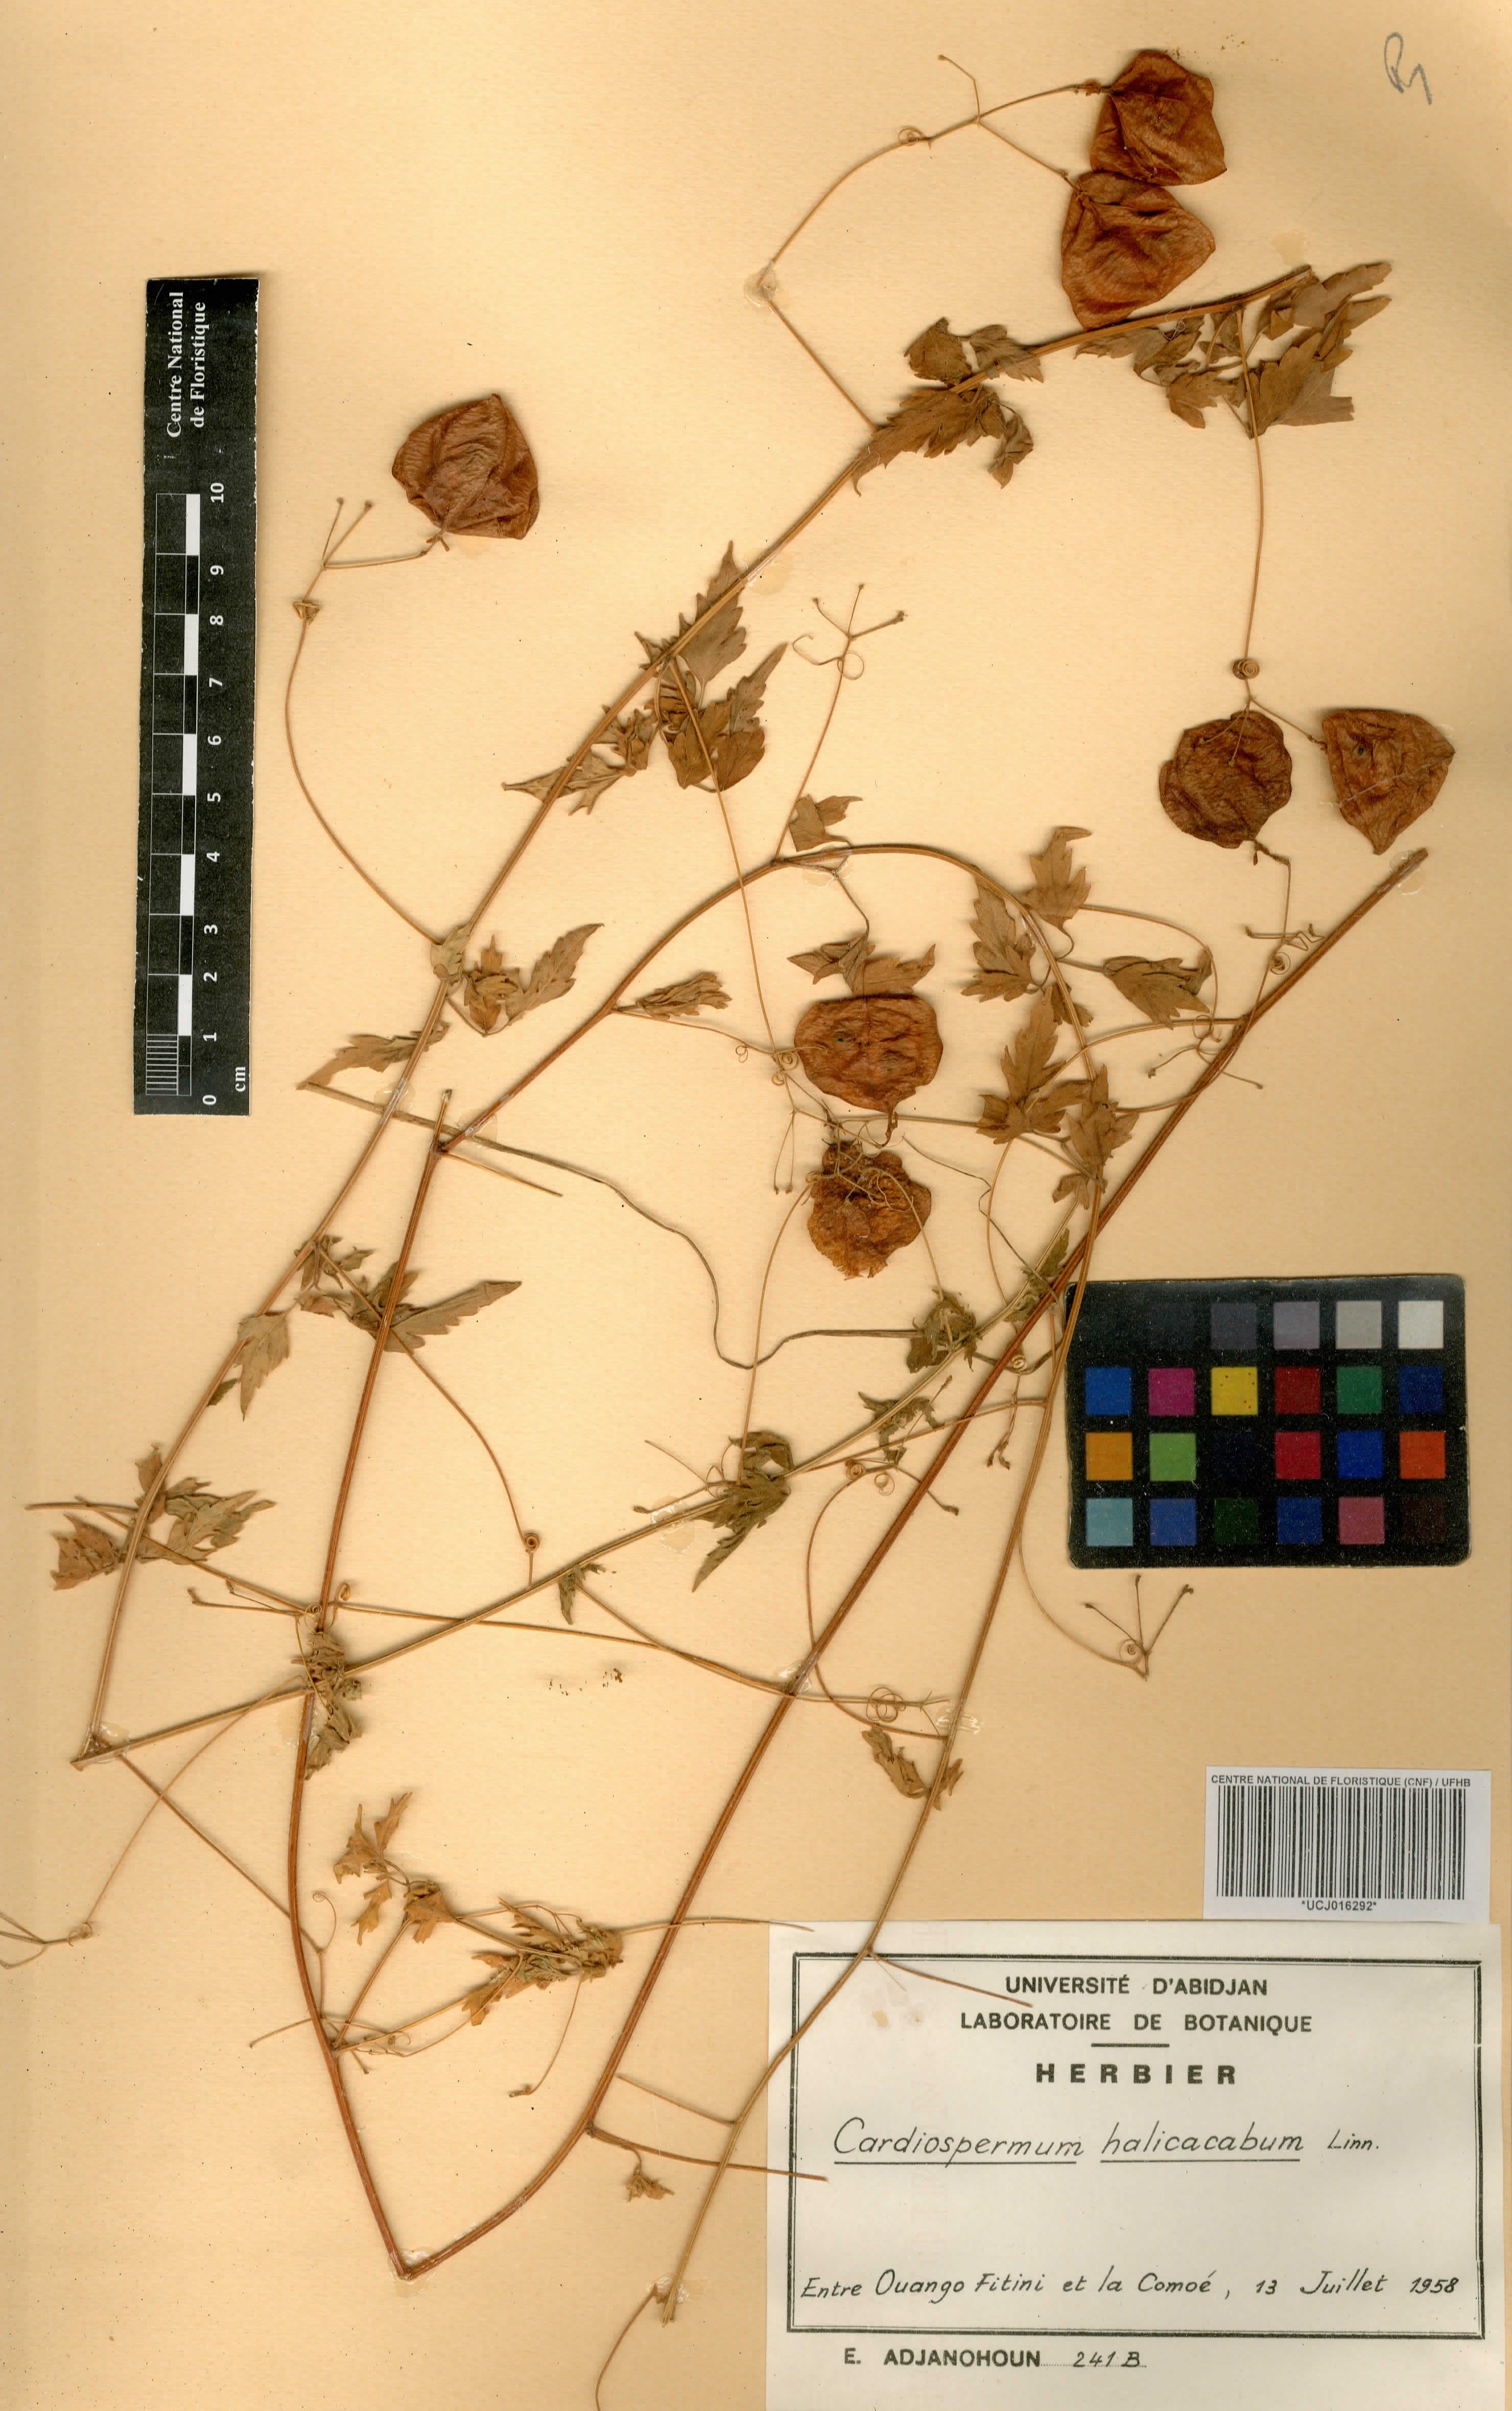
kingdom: Plantae
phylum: Tracheophyta
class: Magnoliopsida
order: Sapindales
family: Sapindaceae
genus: Cardiospermum
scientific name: Cardiospermum halicacabum
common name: Balloon vine
